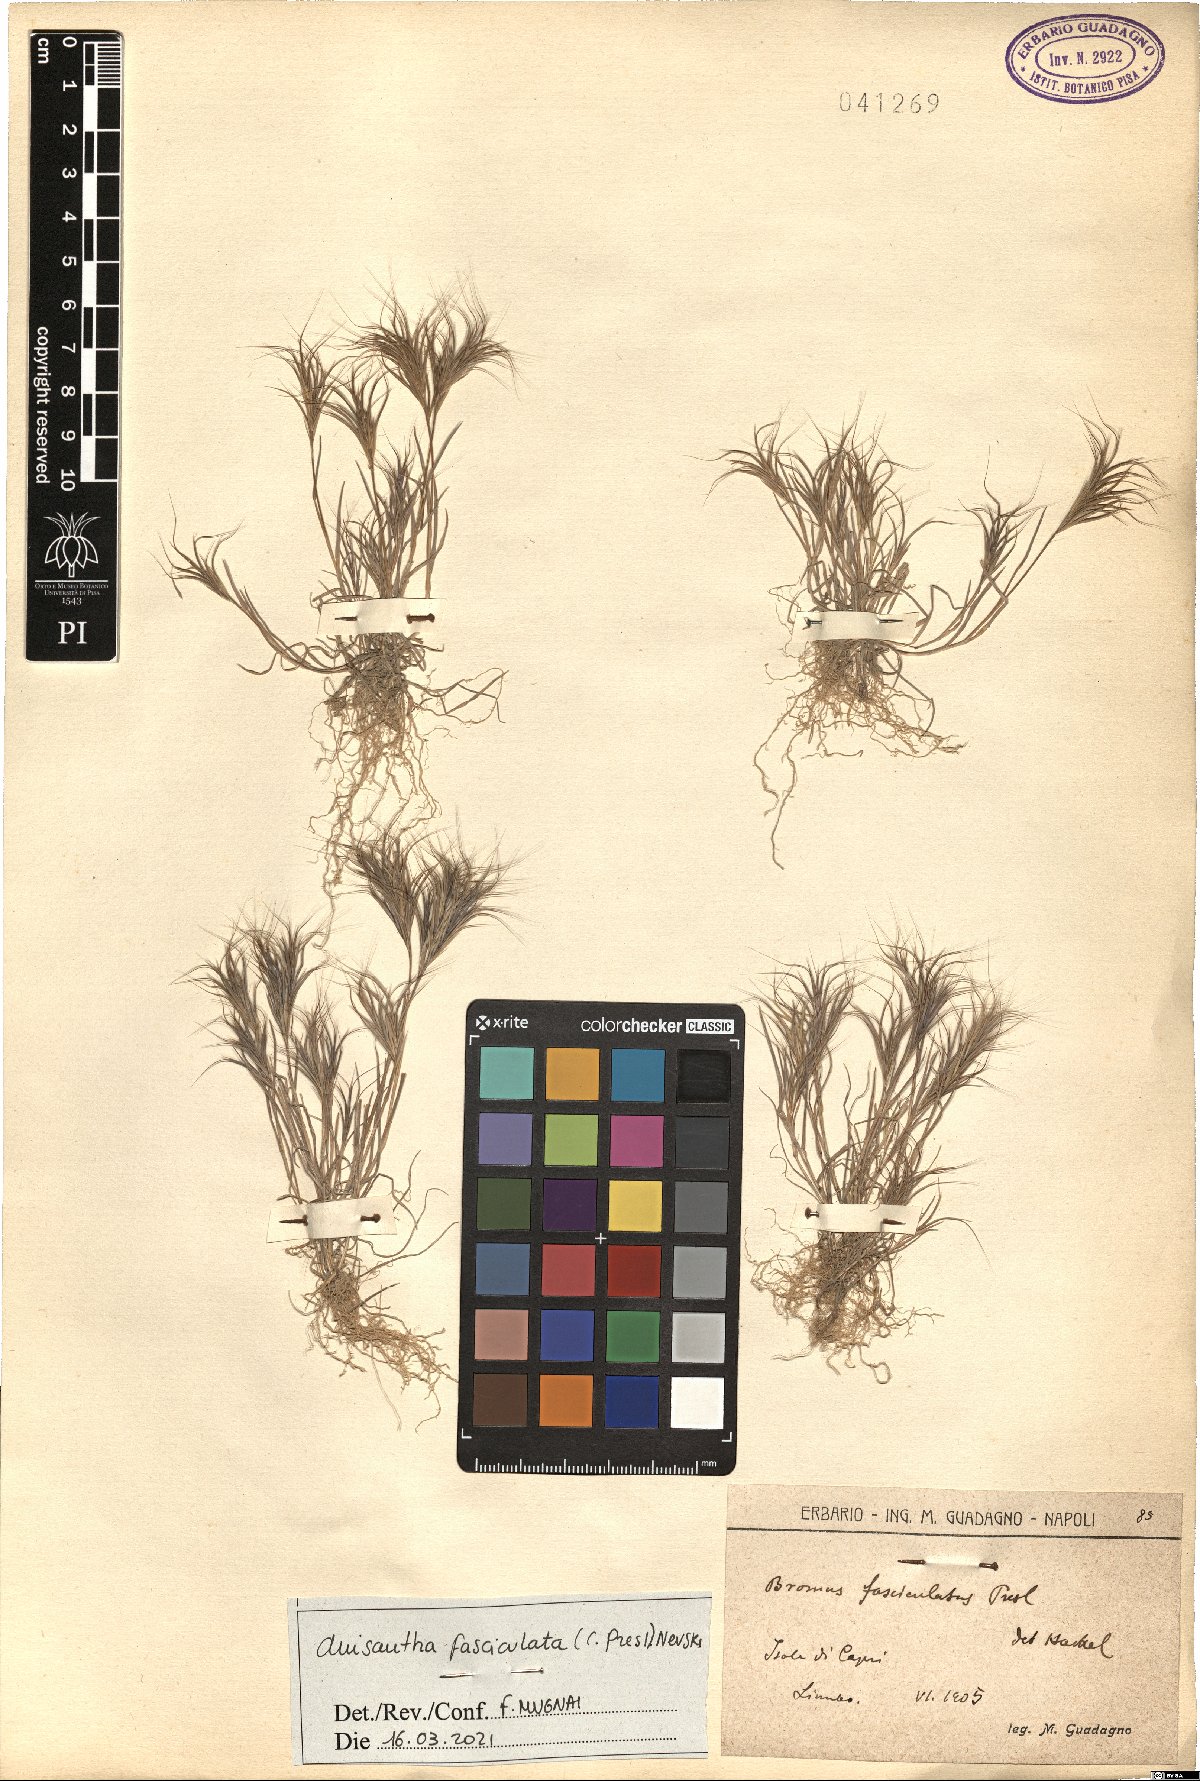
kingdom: Plantae
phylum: Tracheophyta
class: Liliopsida
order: Poales
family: Poaceae
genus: Bromus
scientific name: Bromus fasciculatus
